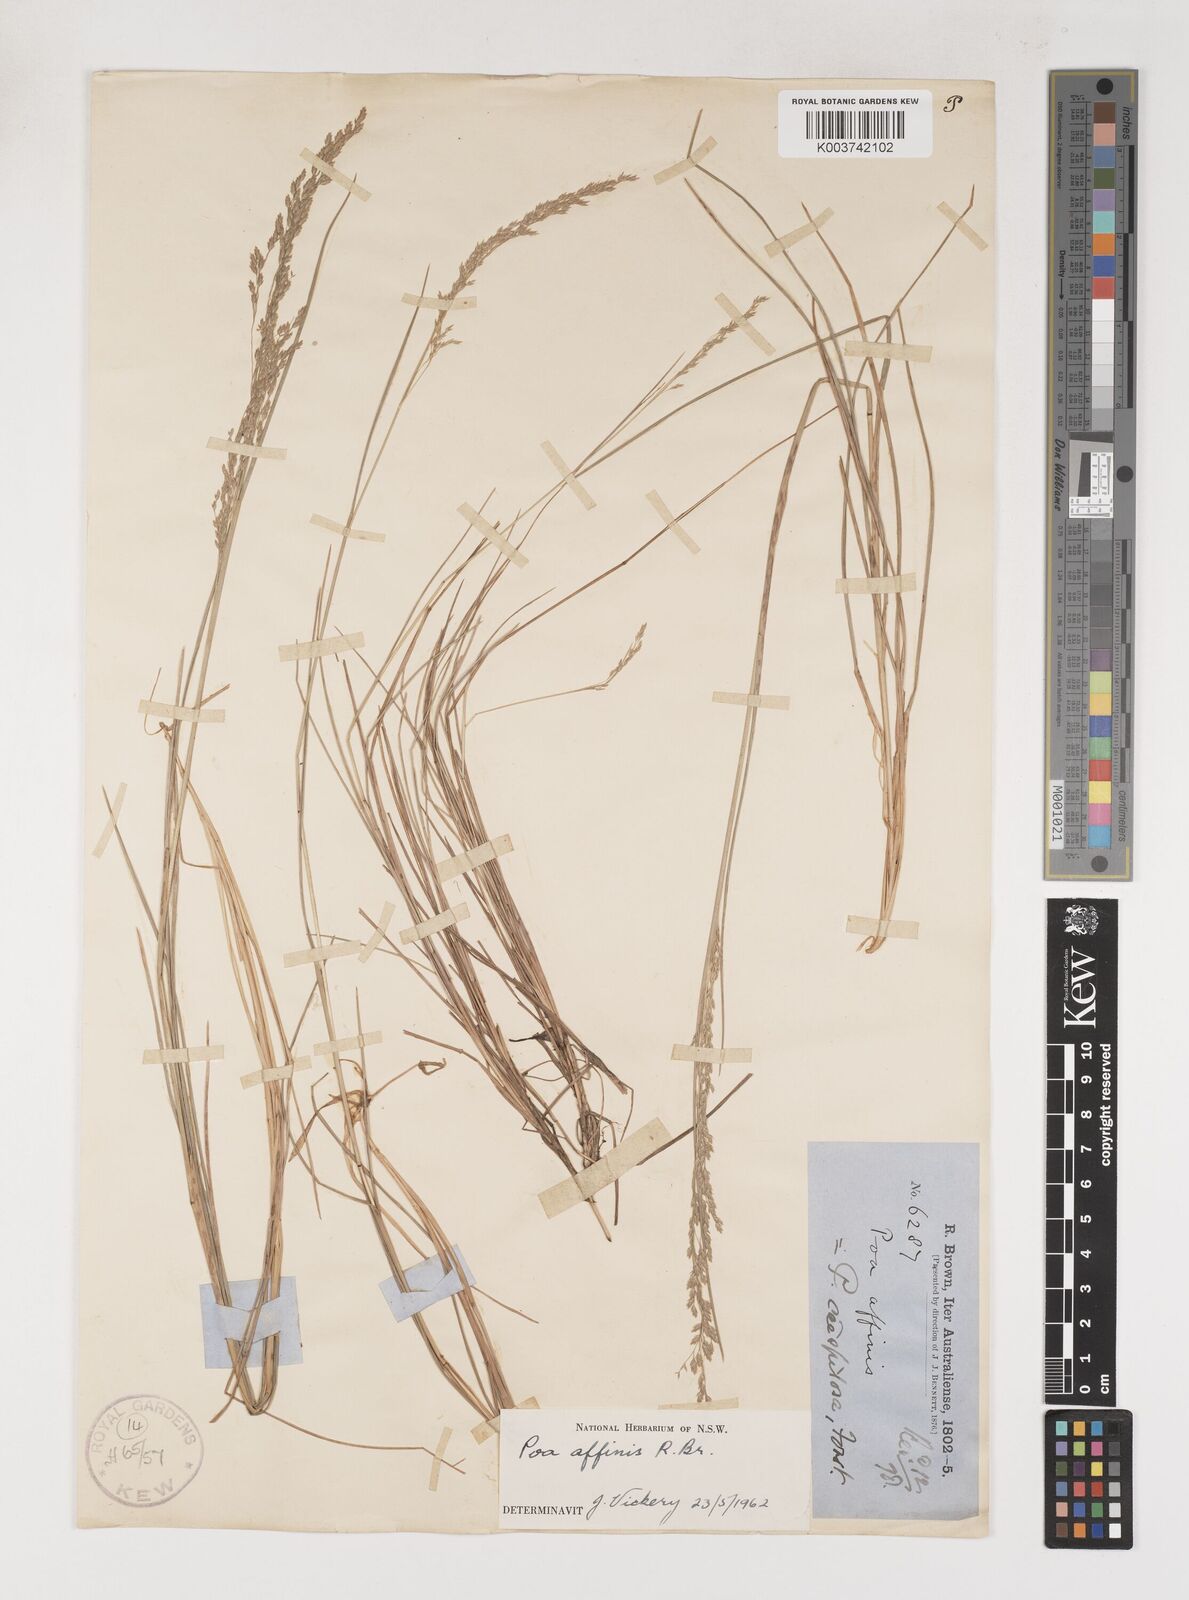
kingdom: Plantae
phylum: Tracheophyta
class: Liliopsida
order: Poales
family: Poaceae
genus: Poa
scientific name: Poa affinis
